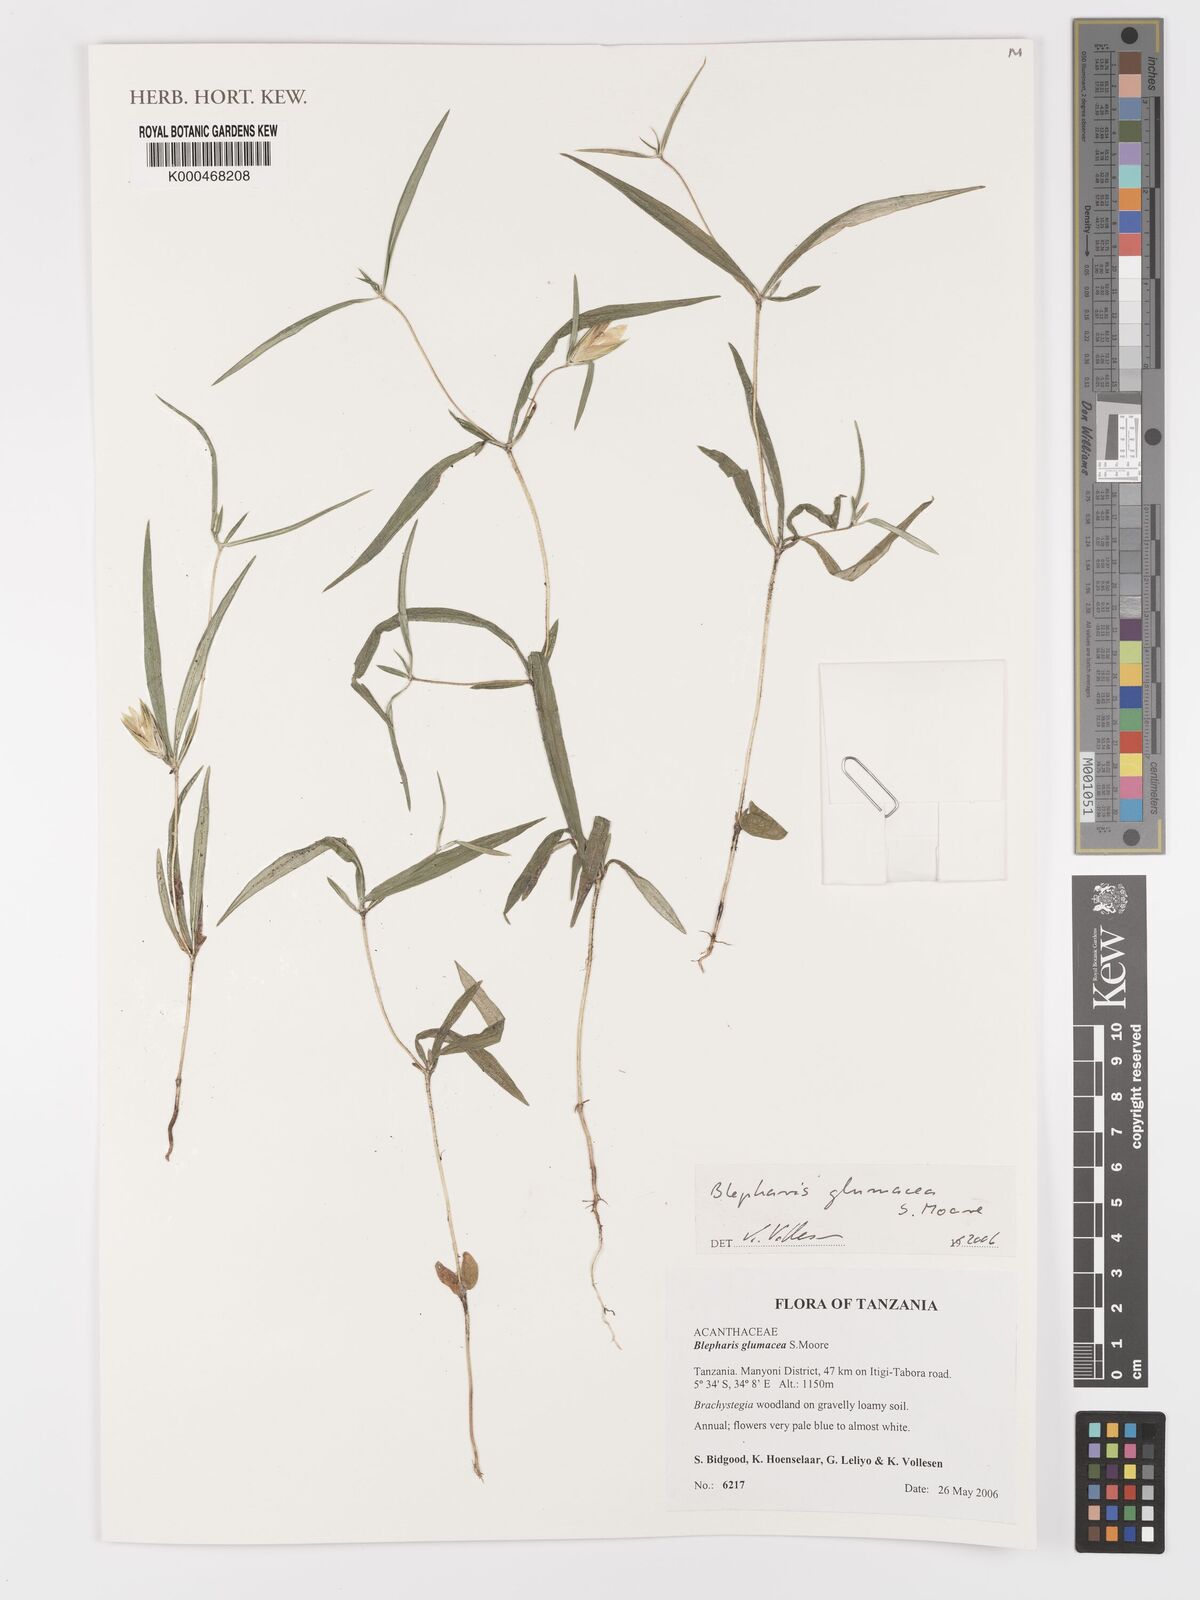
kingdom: Plantae
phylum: Tracheophyta
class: Magnoliopsida
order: Lamiales
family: Acanthaceae
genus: Blepharis
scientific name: Blepharis glumacea
